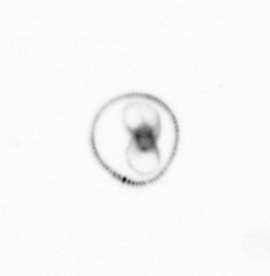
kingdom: Chromista
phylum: Myzozoa
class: Dinophyceae
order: Noctilucales
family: Noctilucaceae
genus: Noctiluca
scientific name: Noctiluca scintillans
